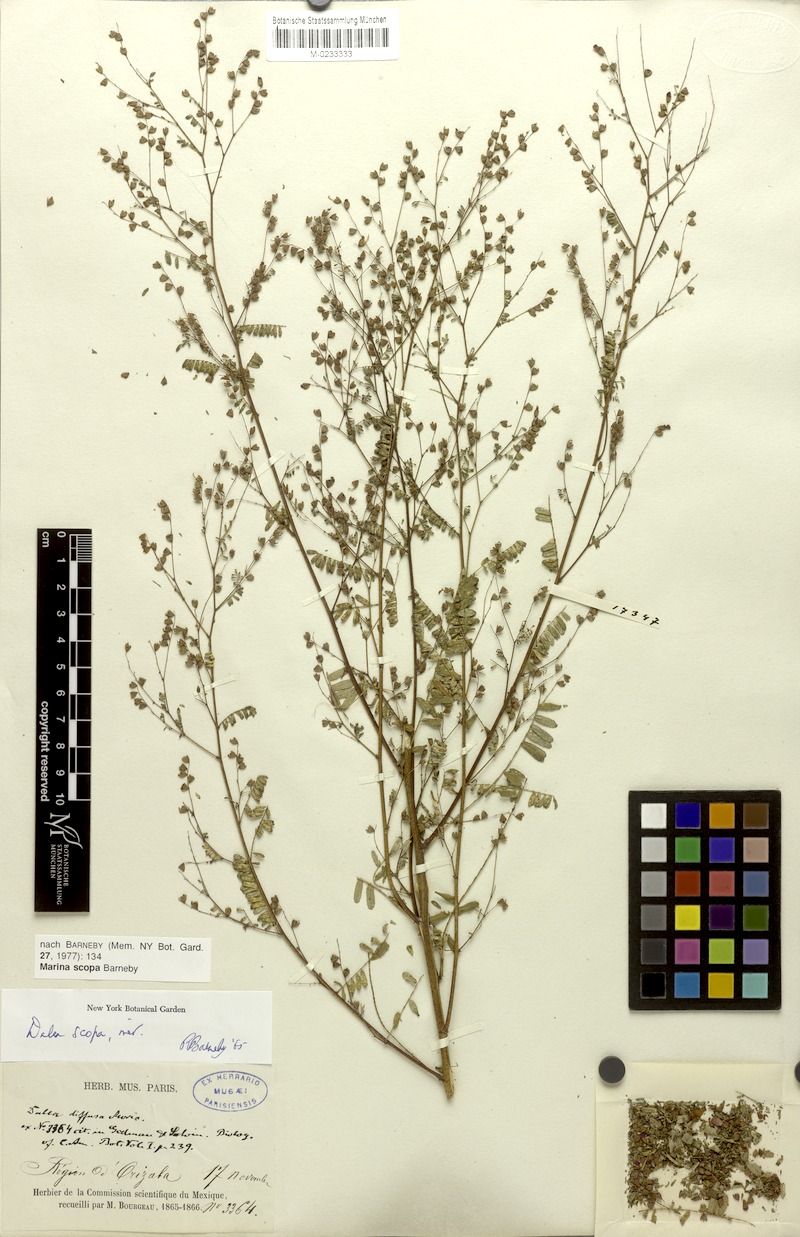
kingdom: Plantae
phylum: Tracheophyta
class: Magnoliopsida
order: Fabales
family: Fabaceae
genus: Marina
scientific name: Marina scopa
